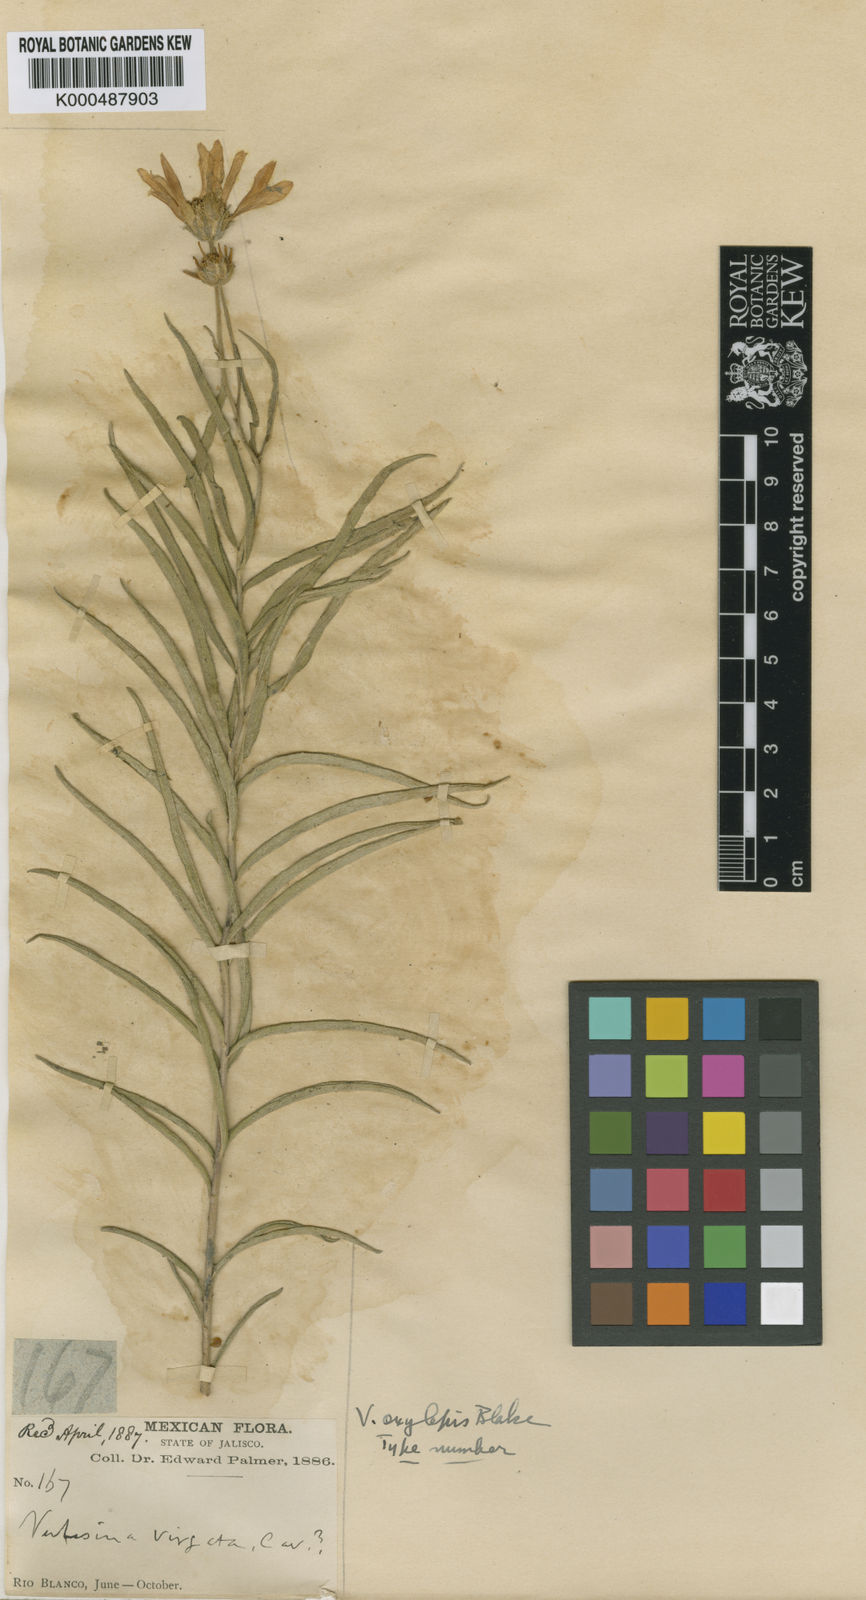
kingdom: Plantae
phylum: Tracheophyta
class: Magnoliopsida
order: Asterales
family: Asteraceae
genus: Verbesina
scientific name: Verbesina oxylepis
